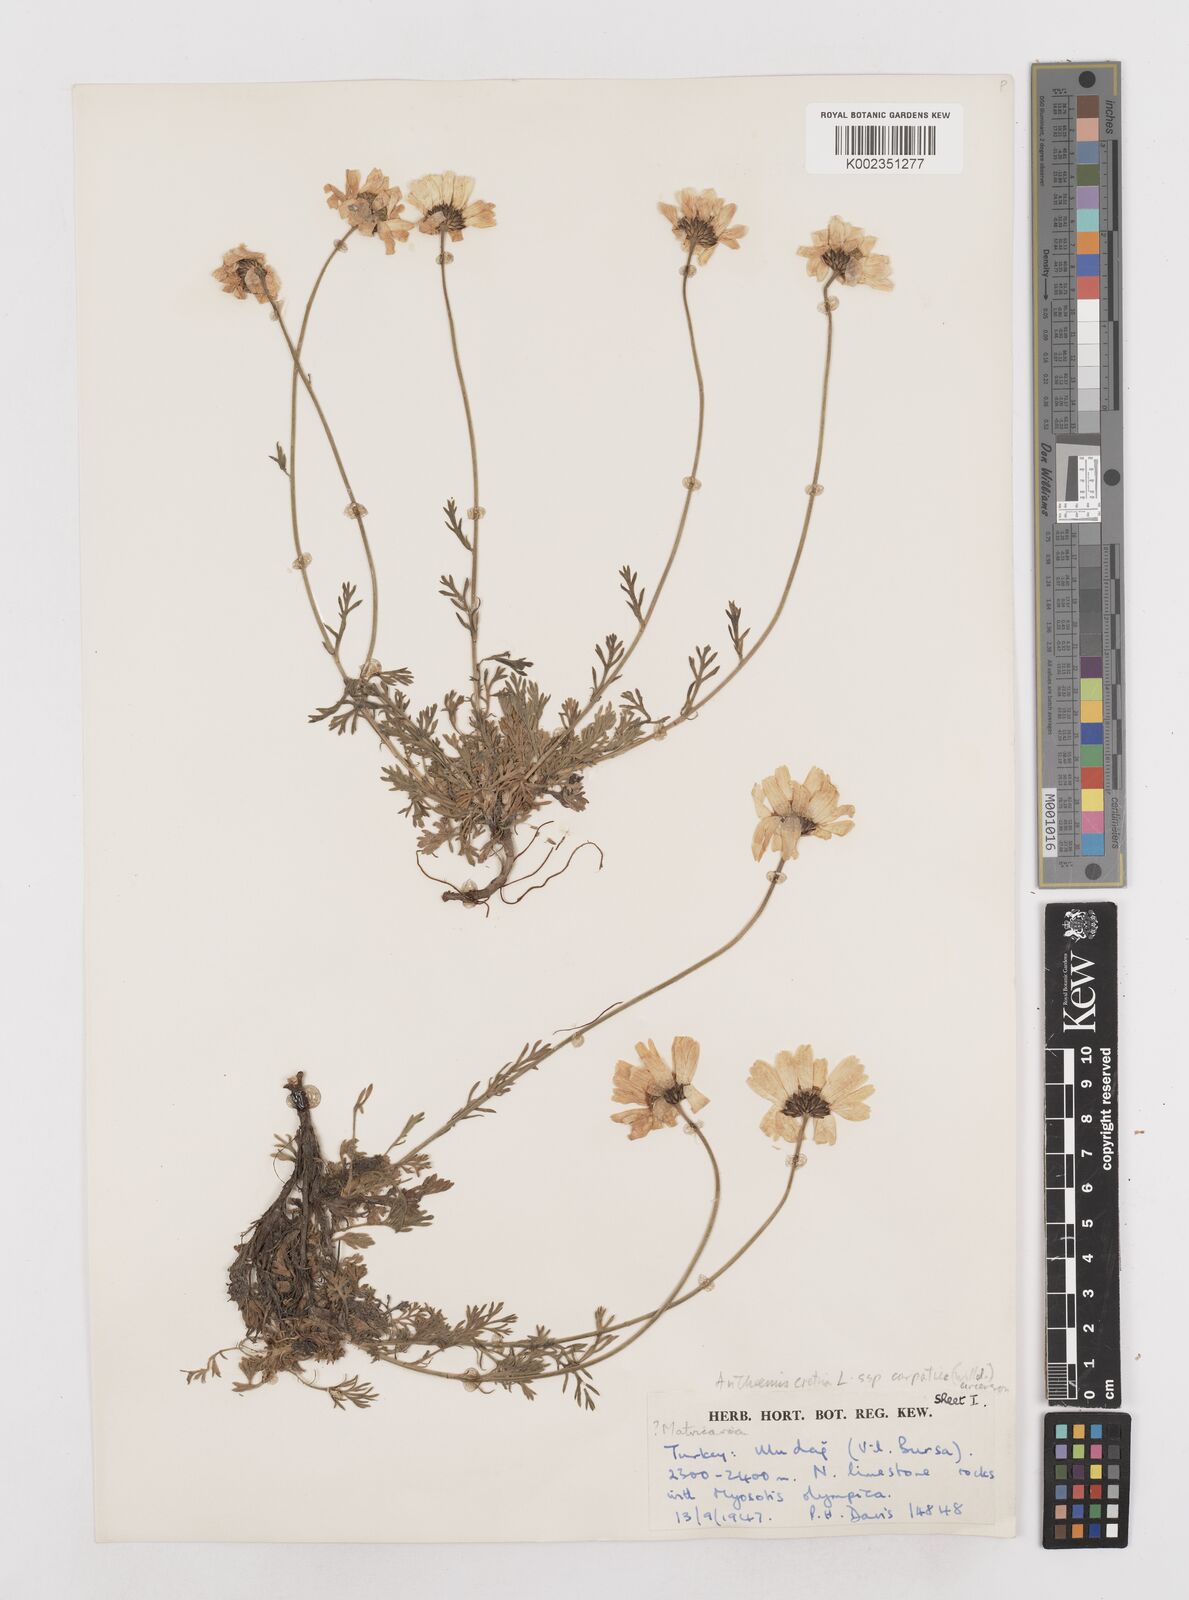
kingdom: Plantae
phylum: Tracheophyta
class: Magnoliopsida
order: Asterales
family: Asteraceae
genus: Anthemis
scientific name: Anthemis cretica
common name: Mountain dog-daisy
